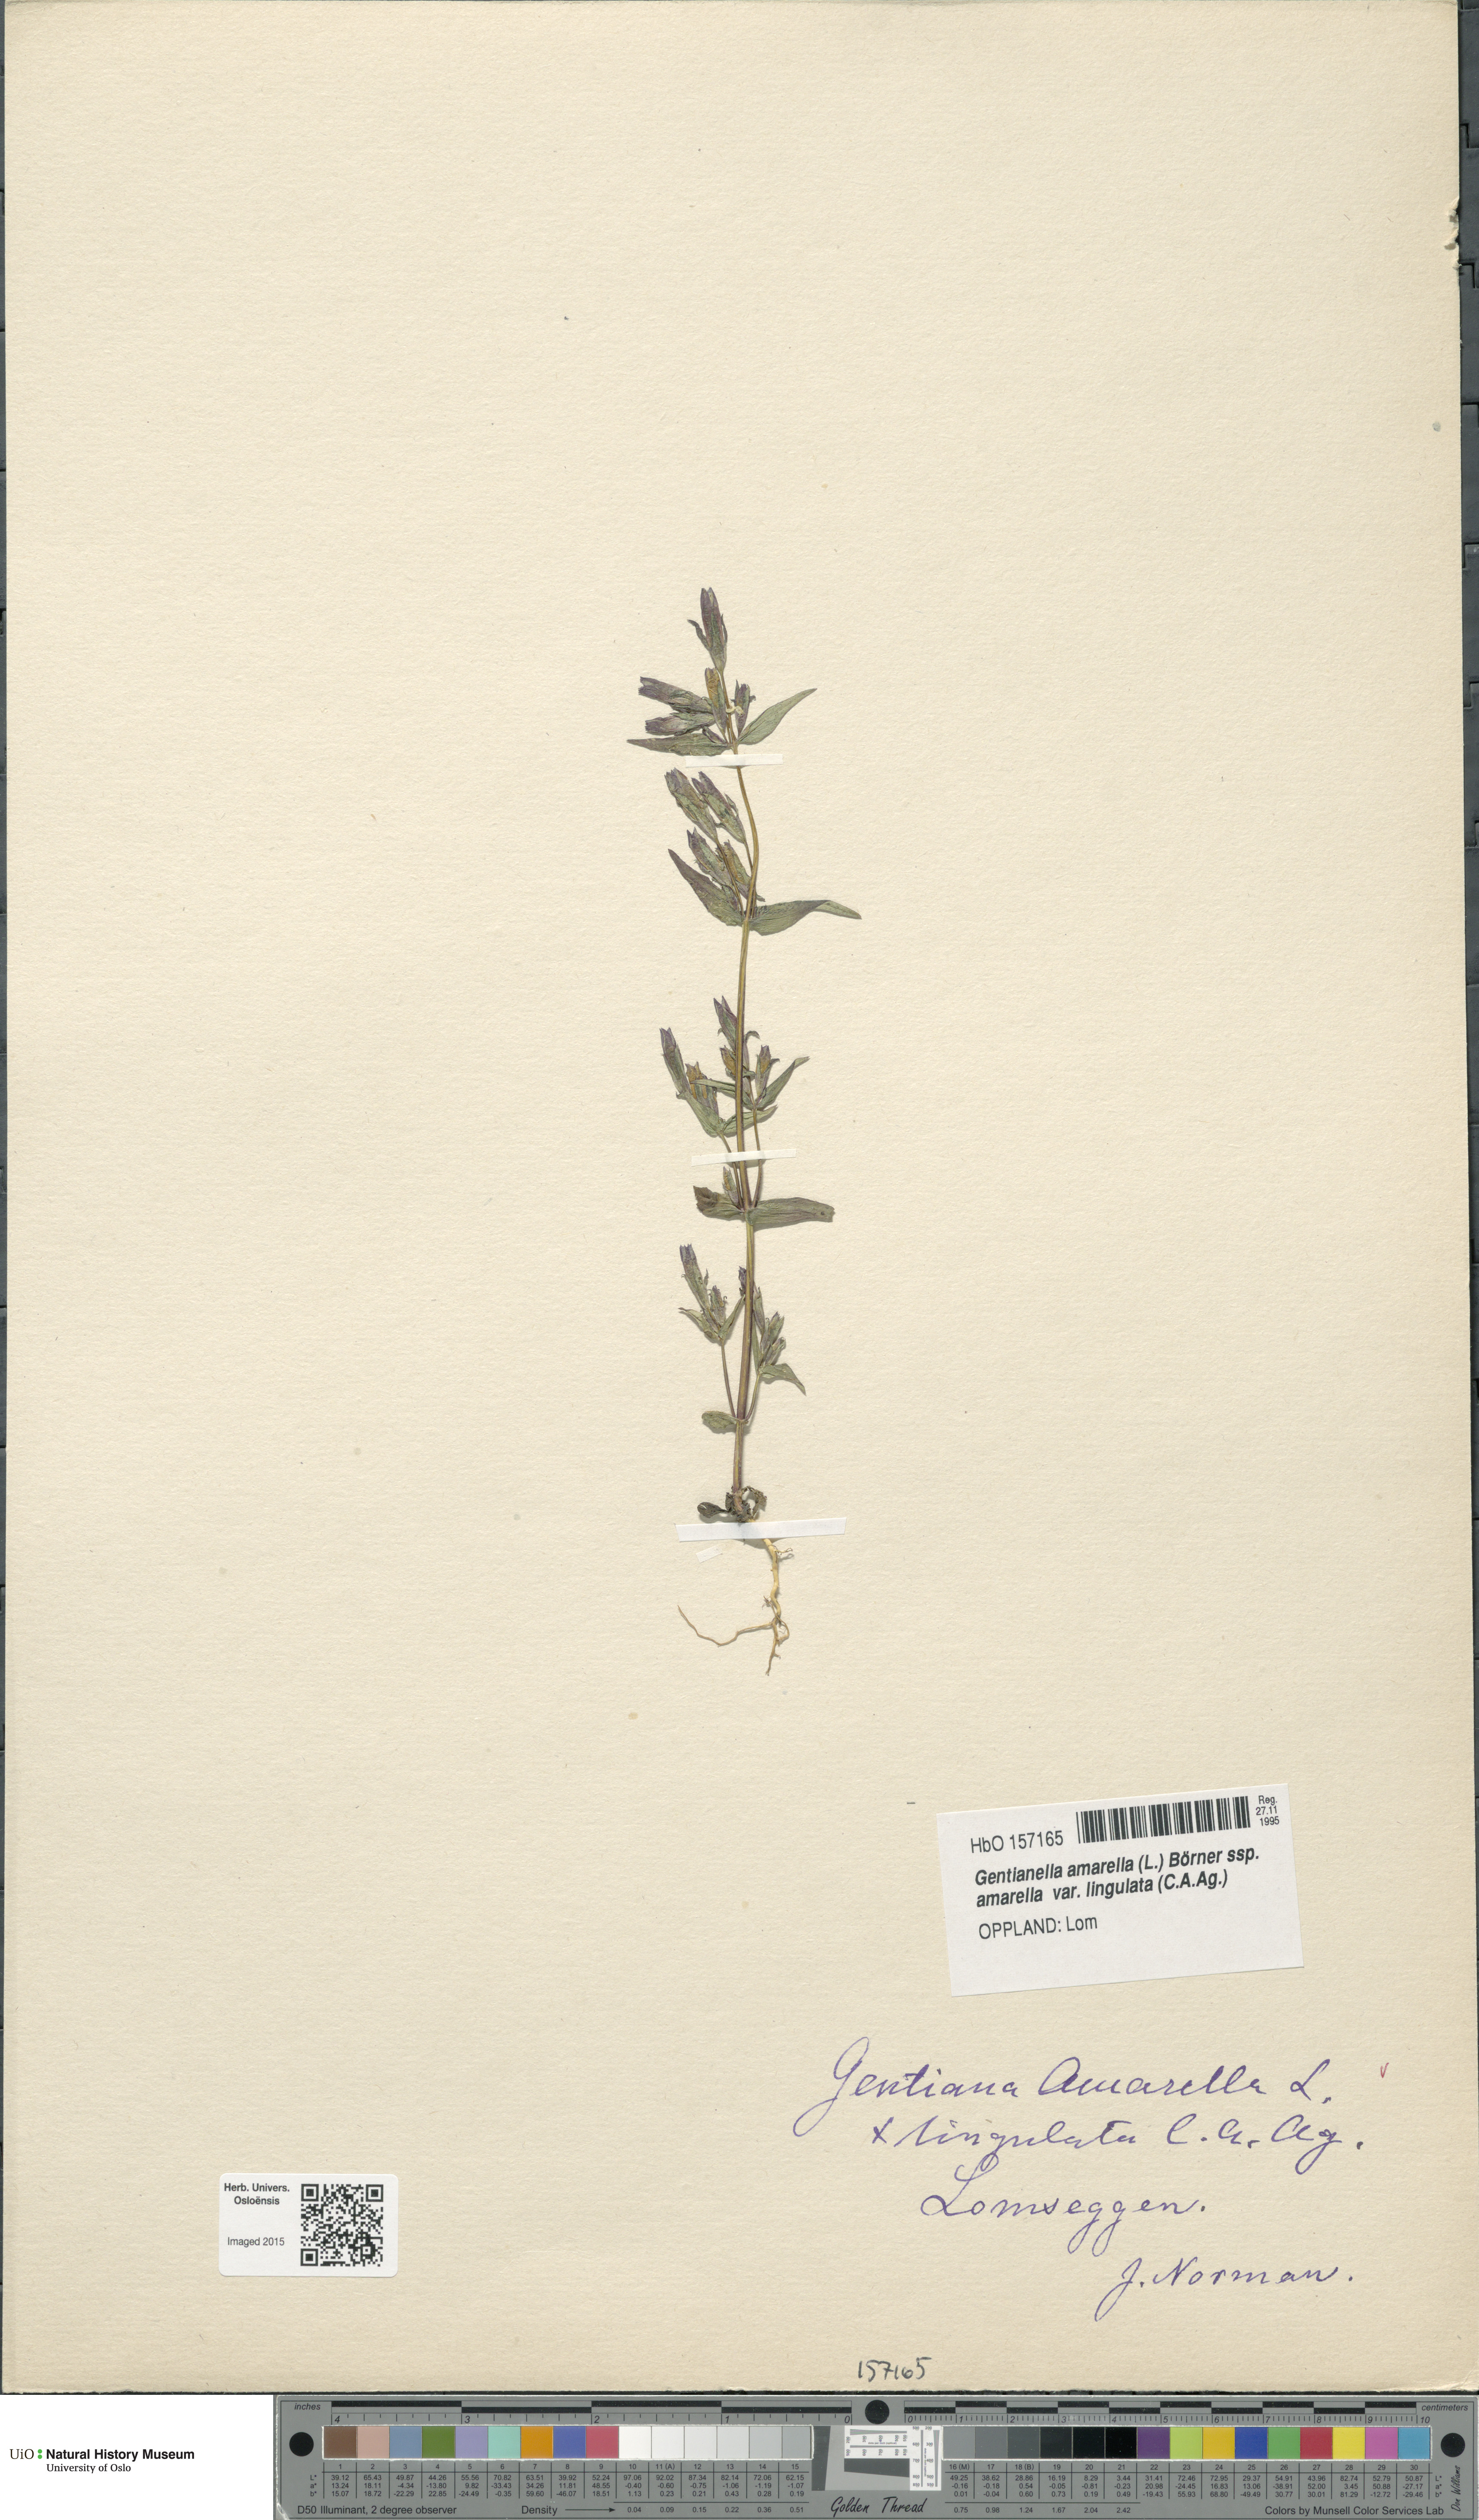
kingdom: Plantae
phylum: Tracheophyta
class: Magnoliopsida
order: Gentianales
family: Gentianaceae
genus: Gentianella
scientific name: Gentianella amarella
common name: Autumn gentian
